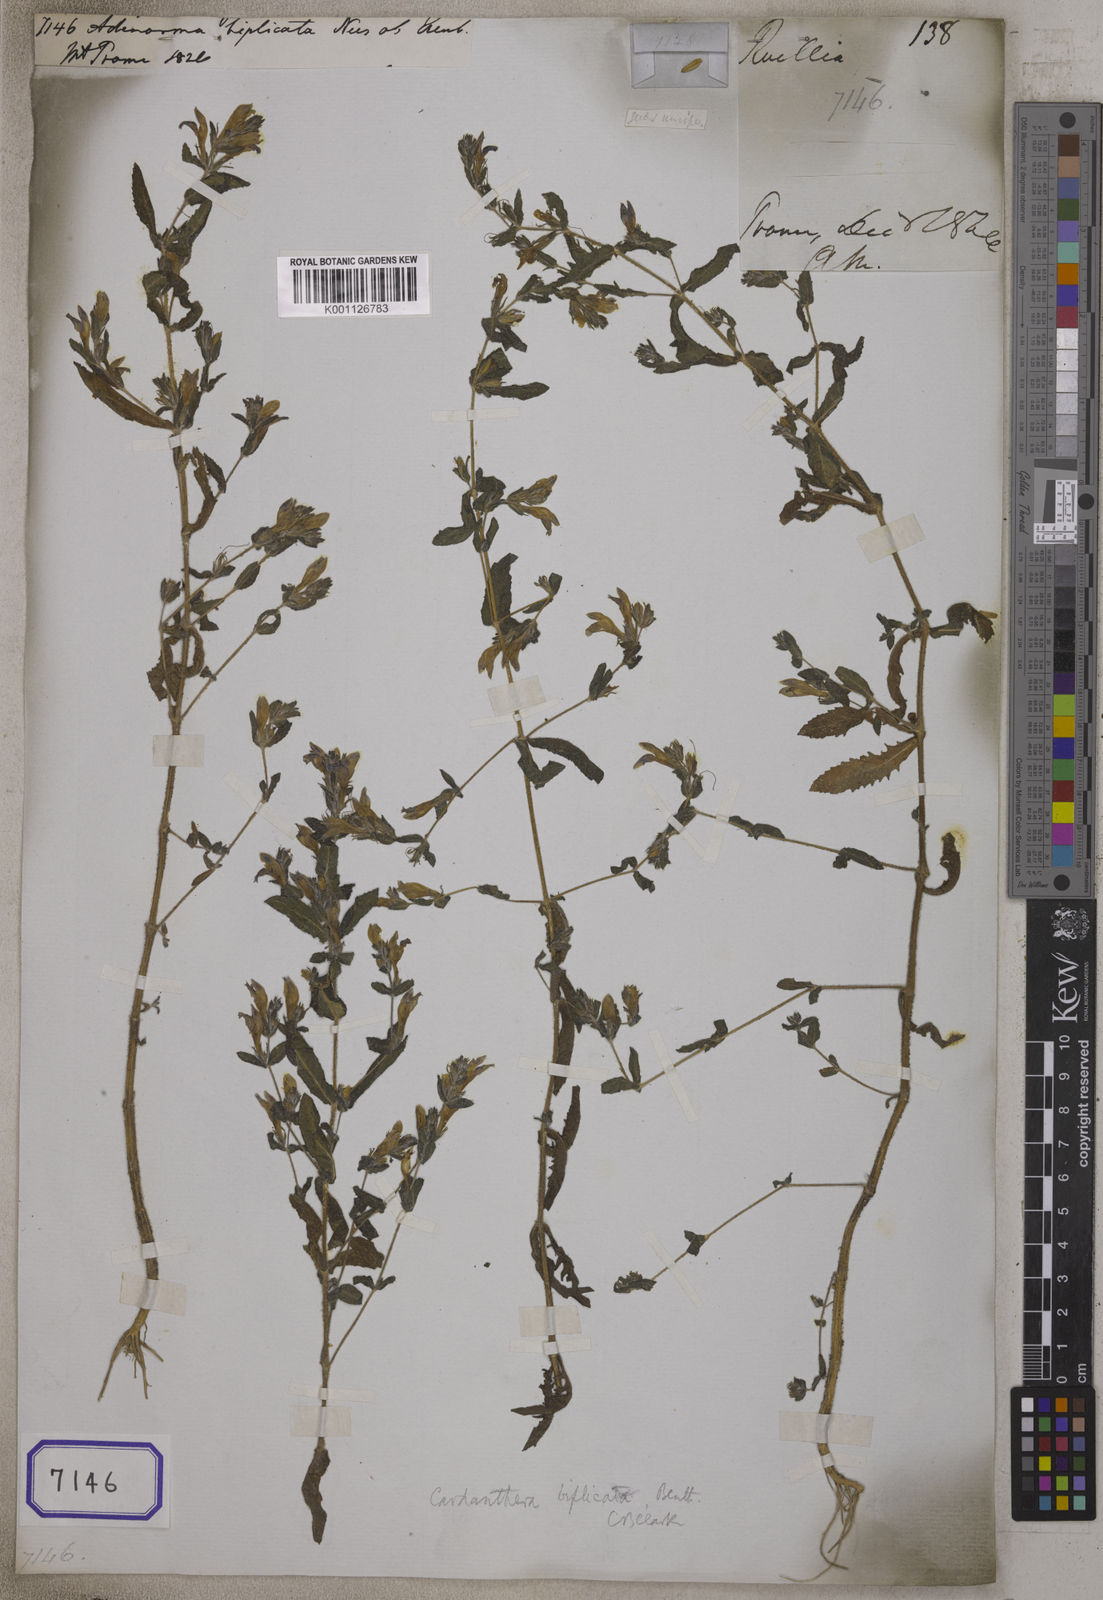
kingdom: Plantae
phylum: Tracheophyta
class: Magnoliopsida
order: Lamiales
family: Acanthaceae
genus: Hygrophila
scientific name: Hygrophila biplicata
